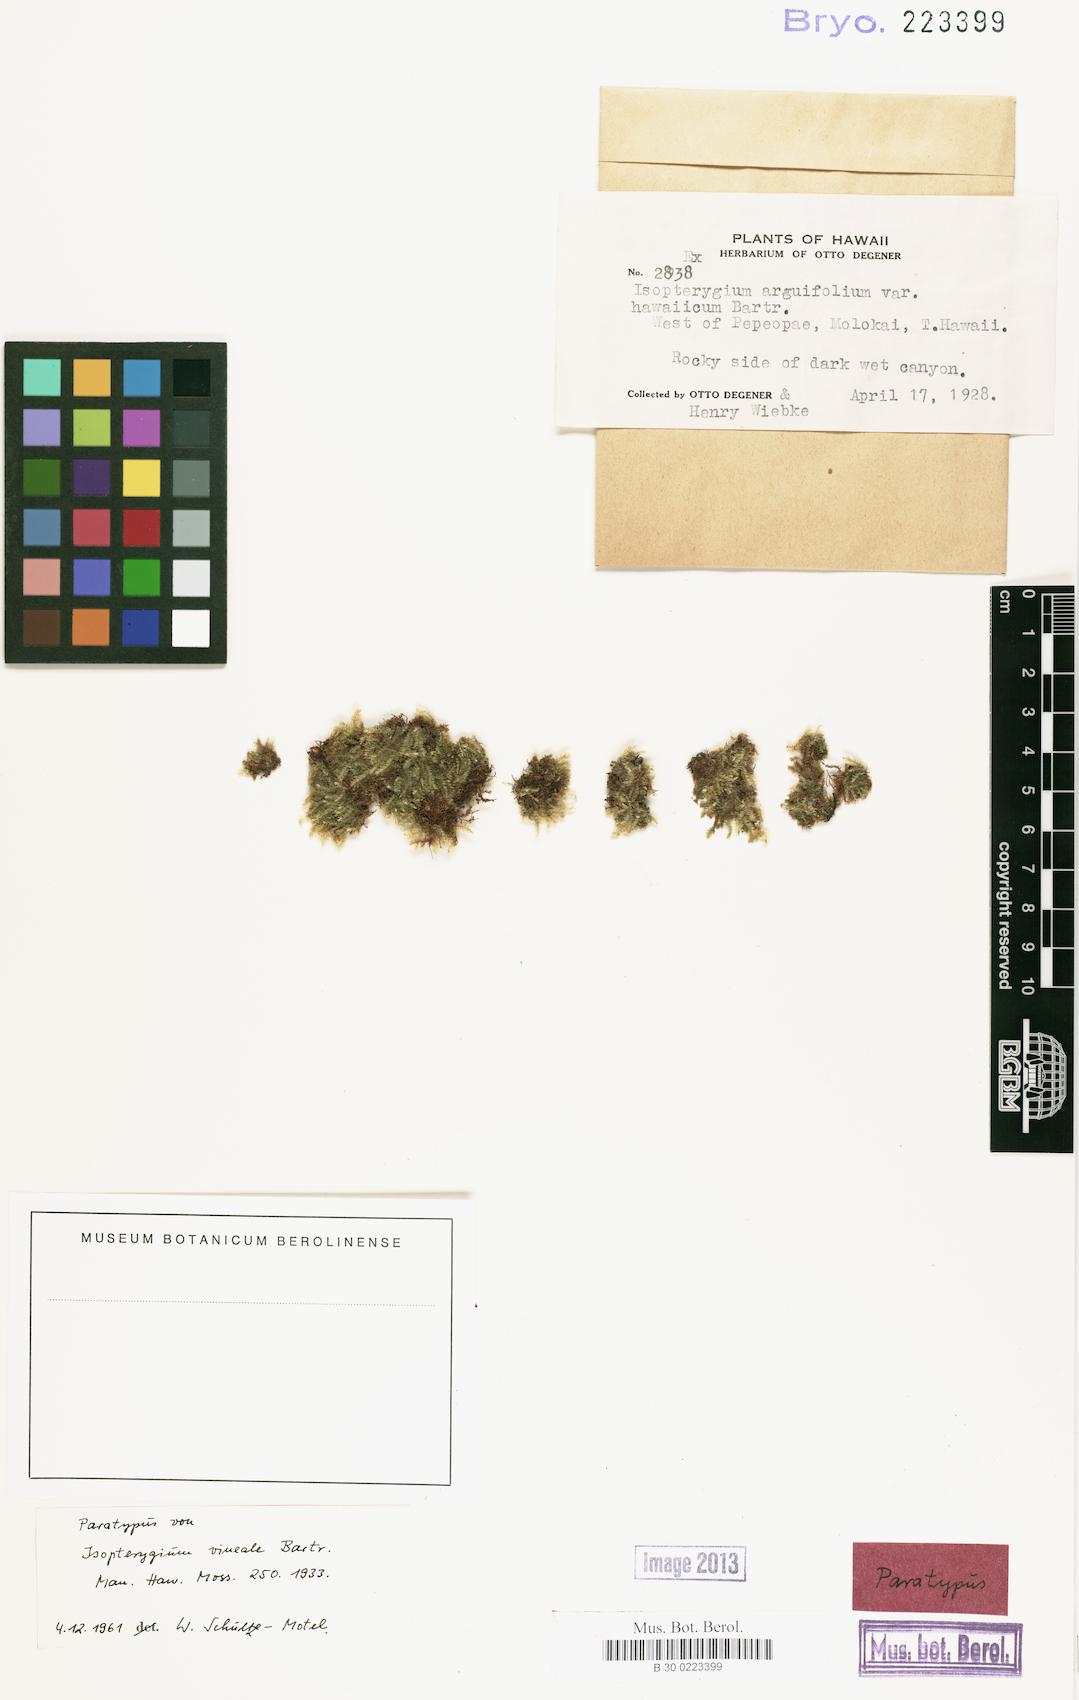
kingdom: Plantae
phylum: Bryophyta
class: Bryopsida
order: Hypnales
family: Plagiotheciaceae
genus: Pseudotaxiphyllum
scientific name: Pseudotaxiphyllum pohliicarpum
